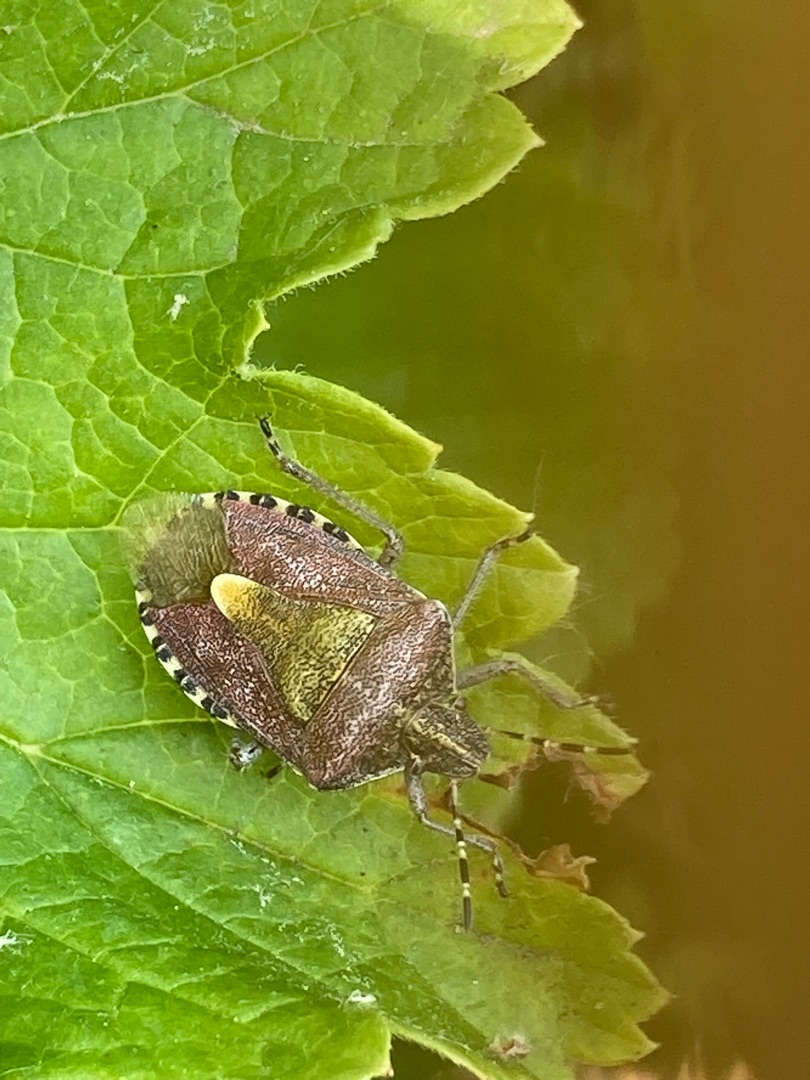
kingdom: Animalia
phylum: Arthropoda
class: Insecta
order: Hemiptera
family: Pentatomidae
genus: Dolycoris
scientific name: Dolycoris baccarum
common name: Almindelig bærtæge
